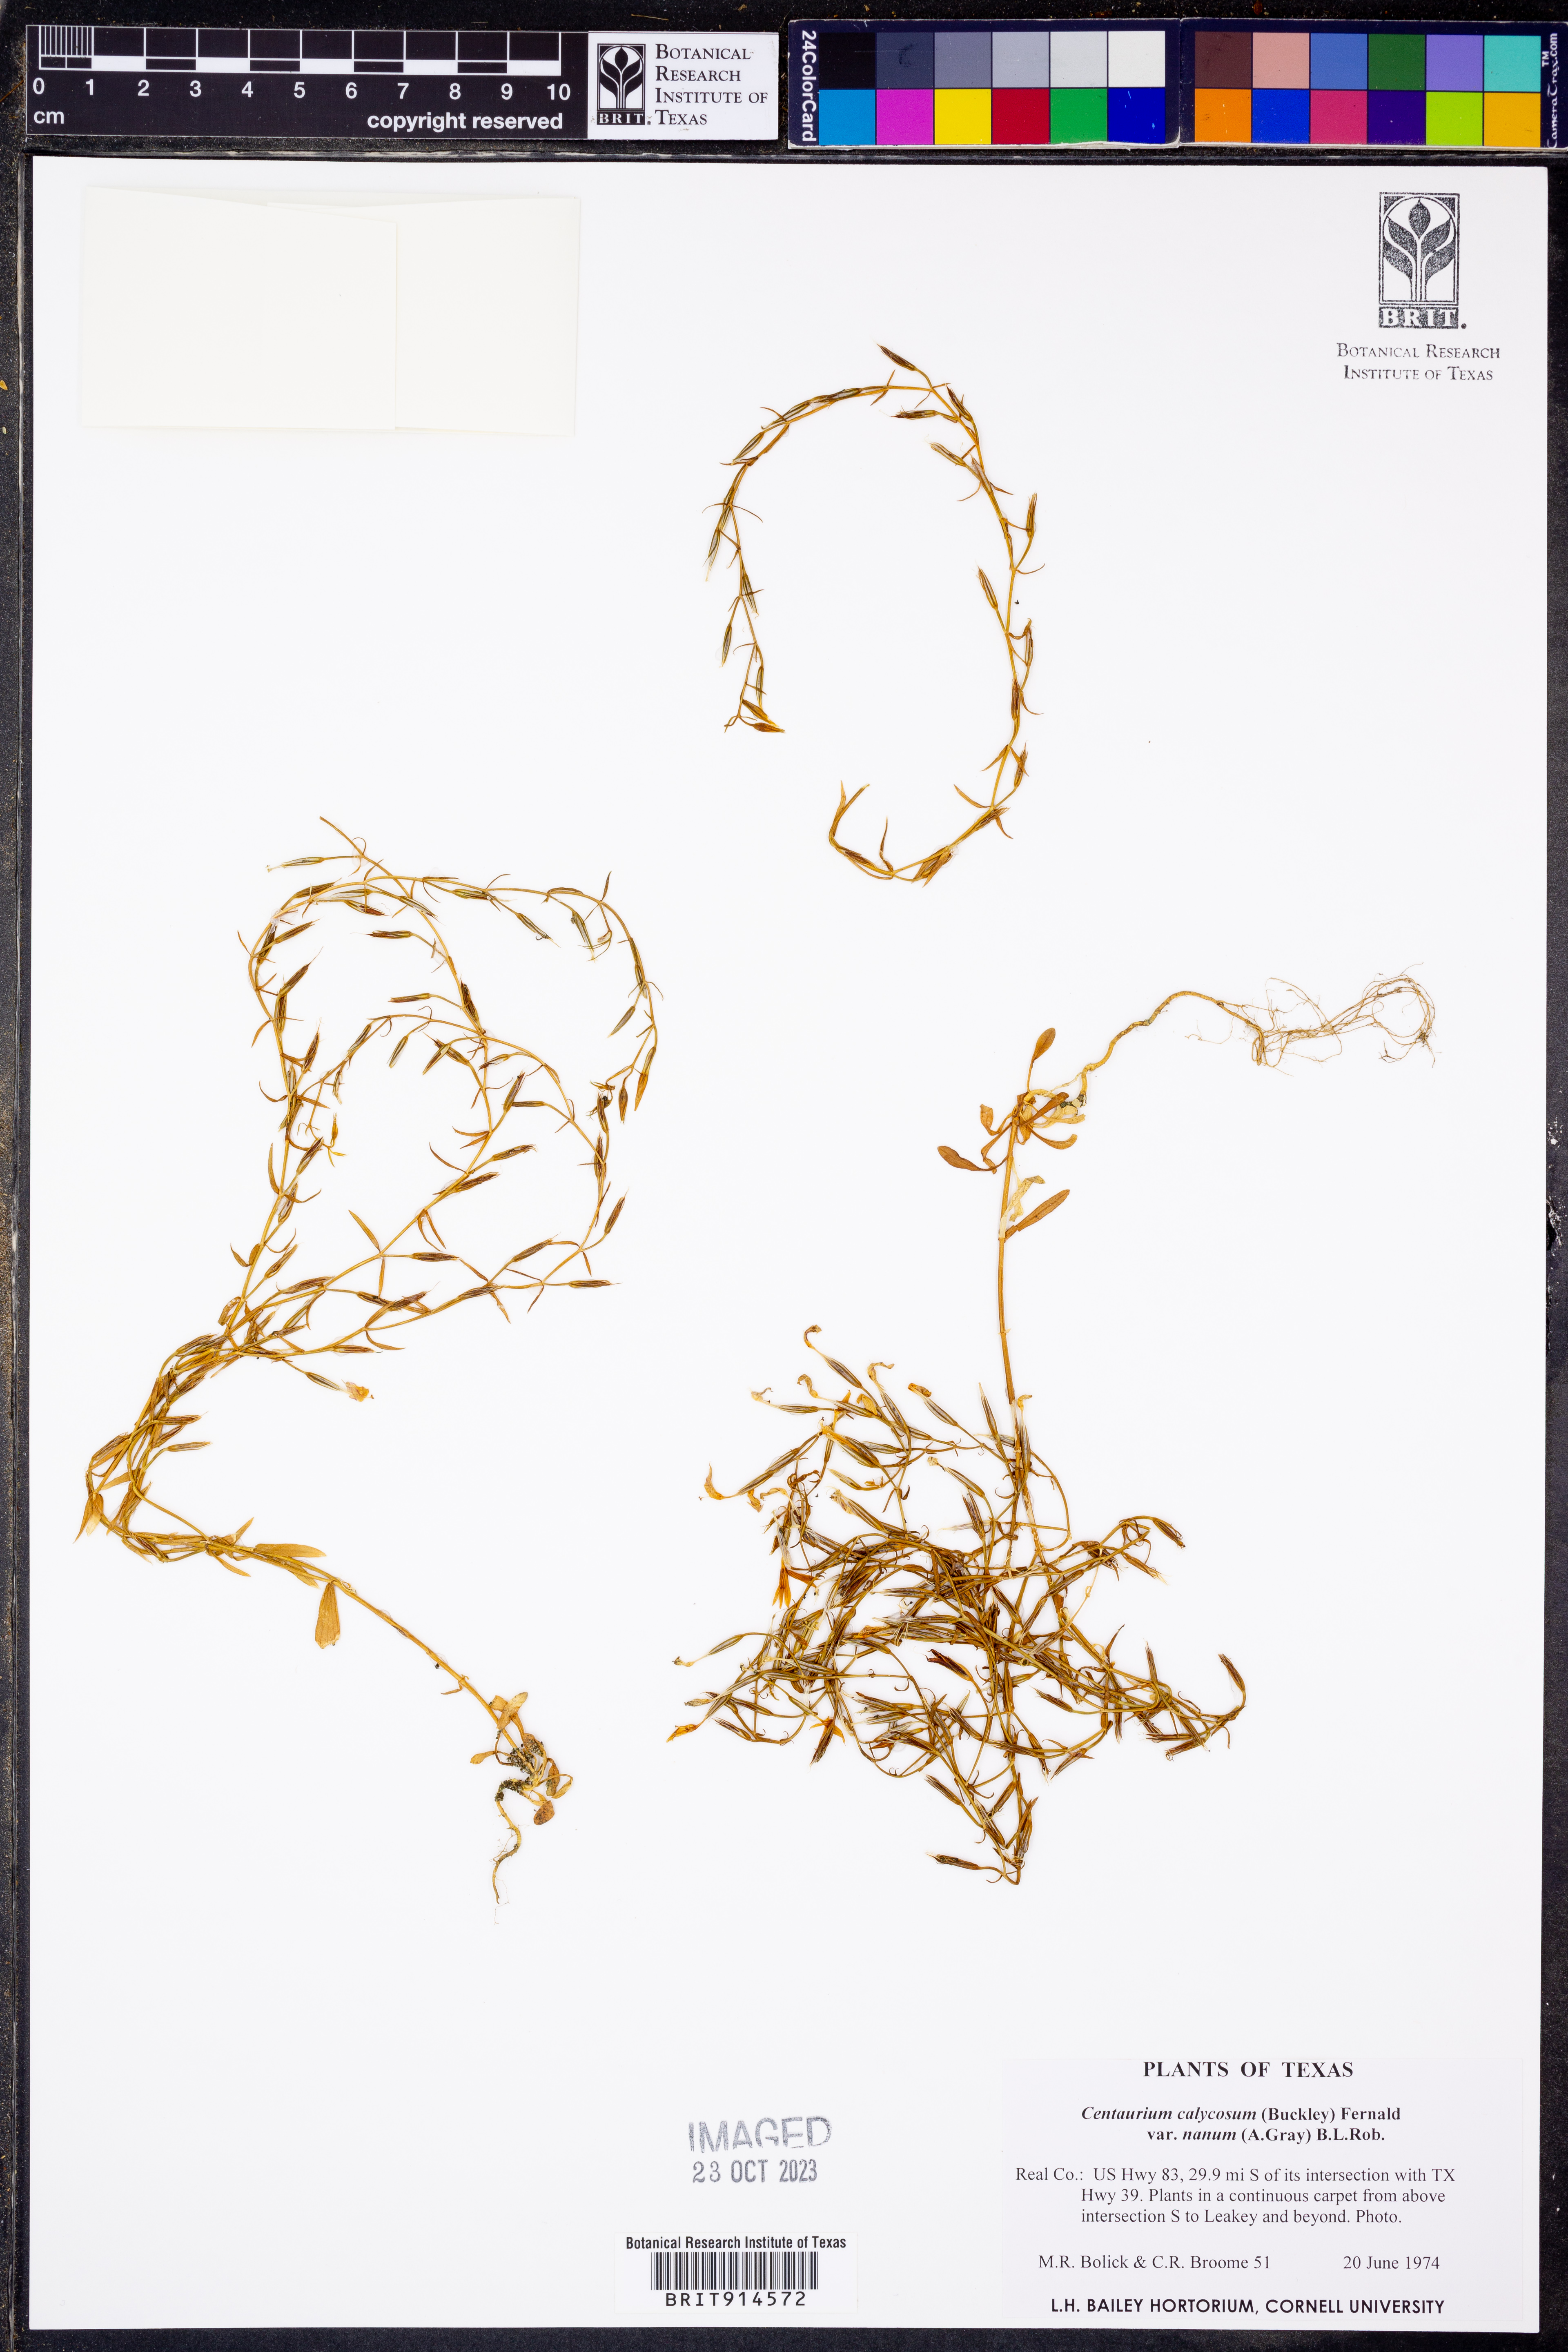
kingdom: Plantae
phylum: Tracheophyta
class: Magnoliopsida
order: Gentianales
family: Gentianaceae
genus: Zeltnera
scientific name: Zeltnera calycosa
